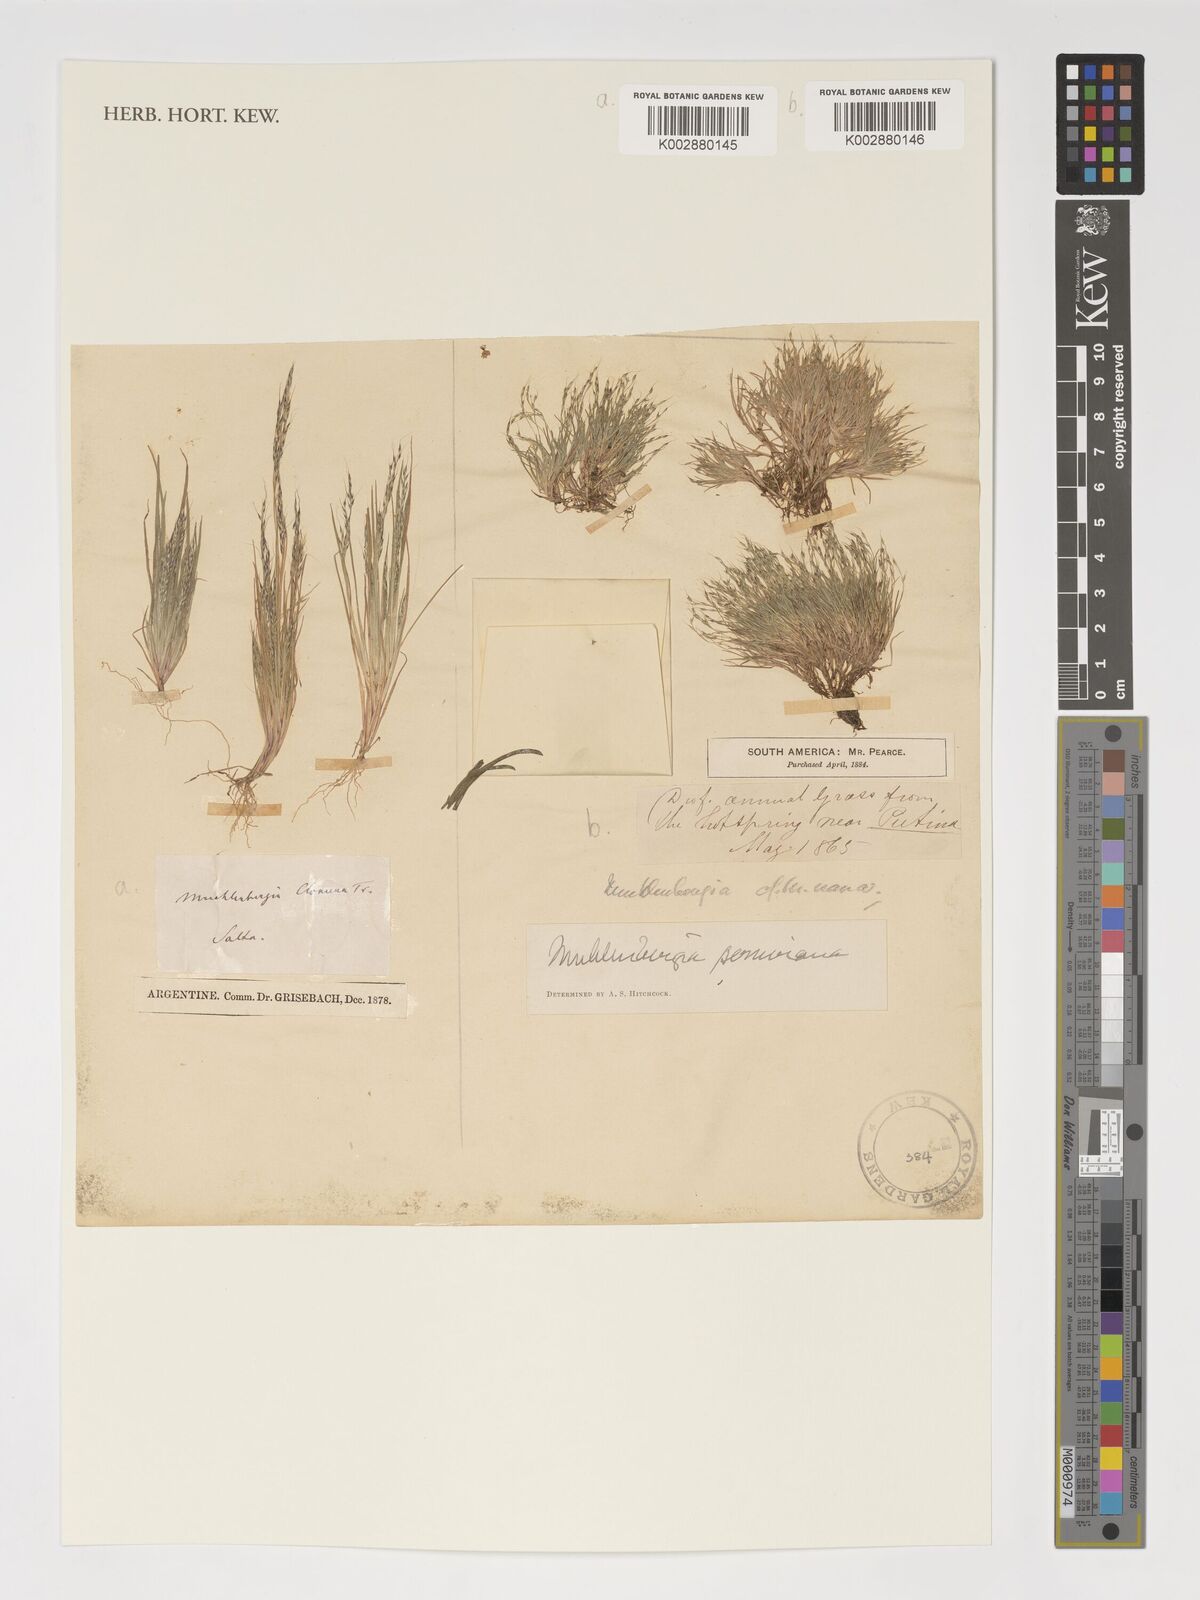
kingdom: Plantae
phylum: Tracheophyta
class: Liliopsida
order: Poales
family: Poaceae
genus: Muhlenbergia
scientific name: Muhlenbergia
